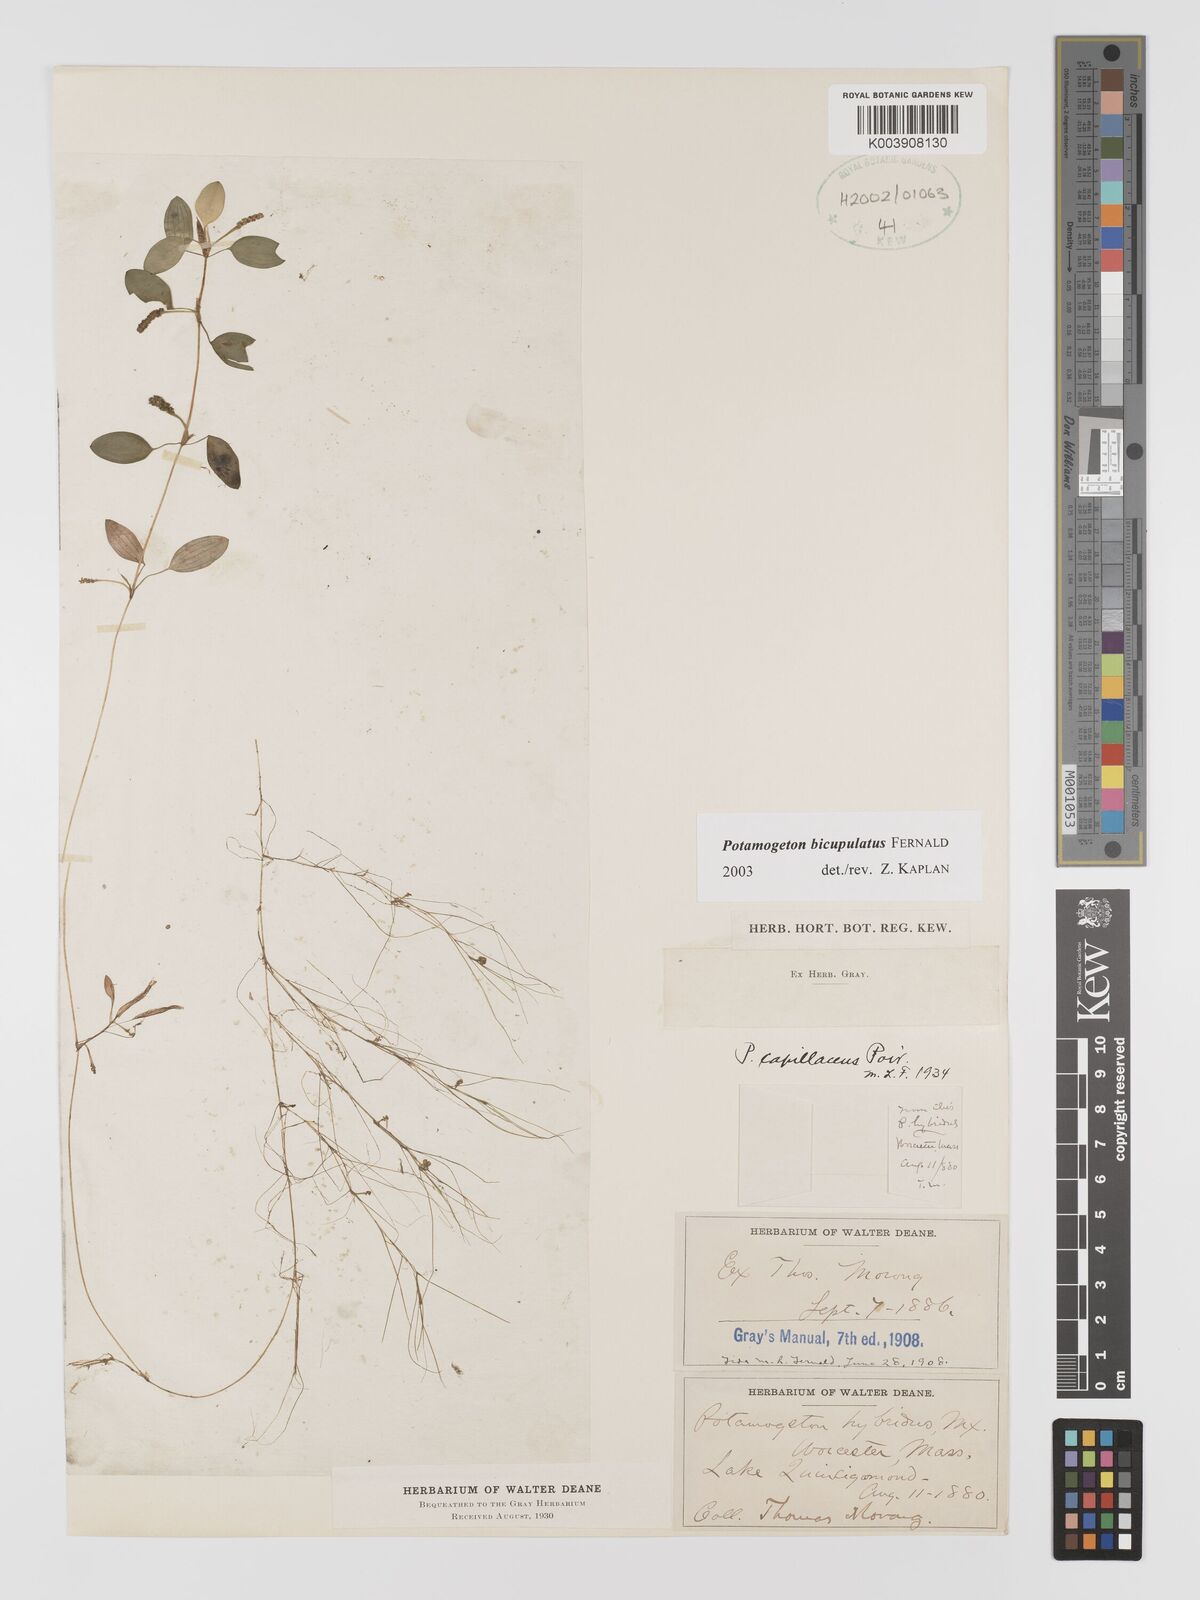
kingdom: Plantae
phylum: Tracheophyta
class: Liliopsida
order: Alismatales
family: Potamogetonaceae
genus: Potamogeton
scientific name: Potamogeton bicupulatus
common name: Snail-seed pondweed
